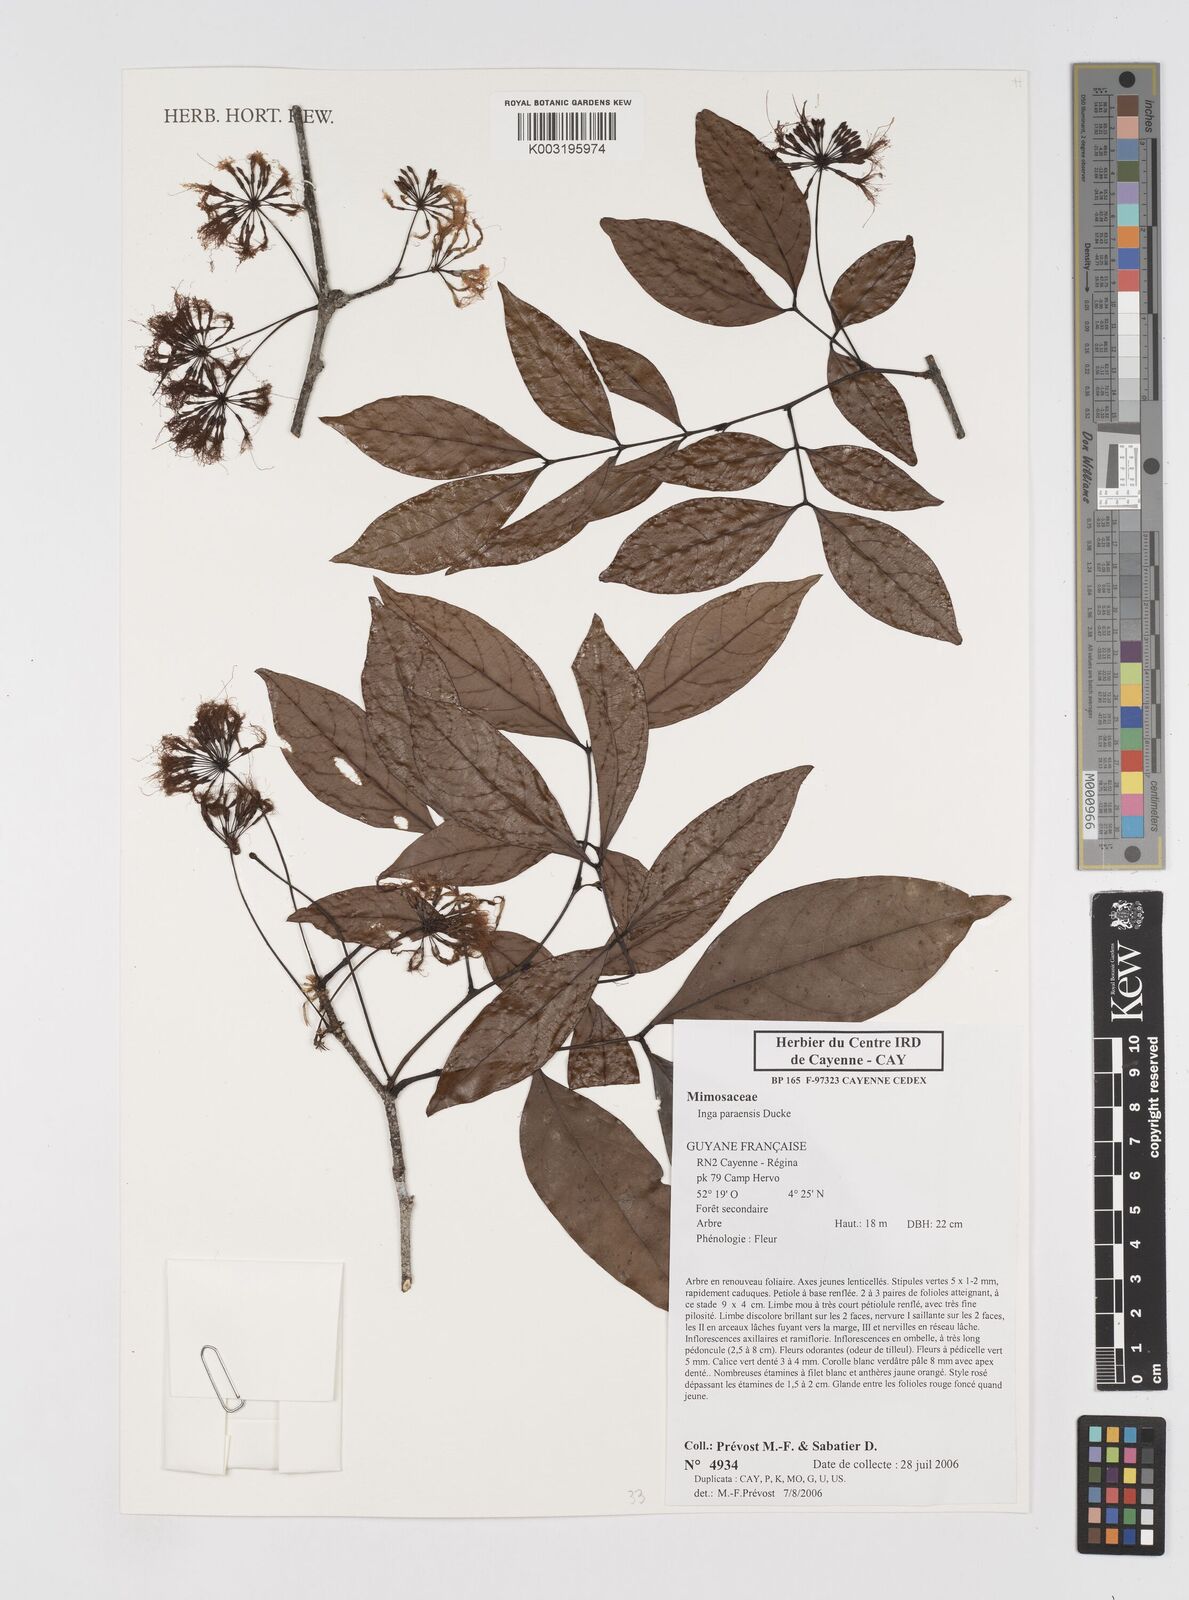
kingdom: Plantae
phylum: Tracheophyta
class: Magnoliopsida
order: Fabales
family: Fabaceae
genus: Inga
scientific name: Inga paraensis
